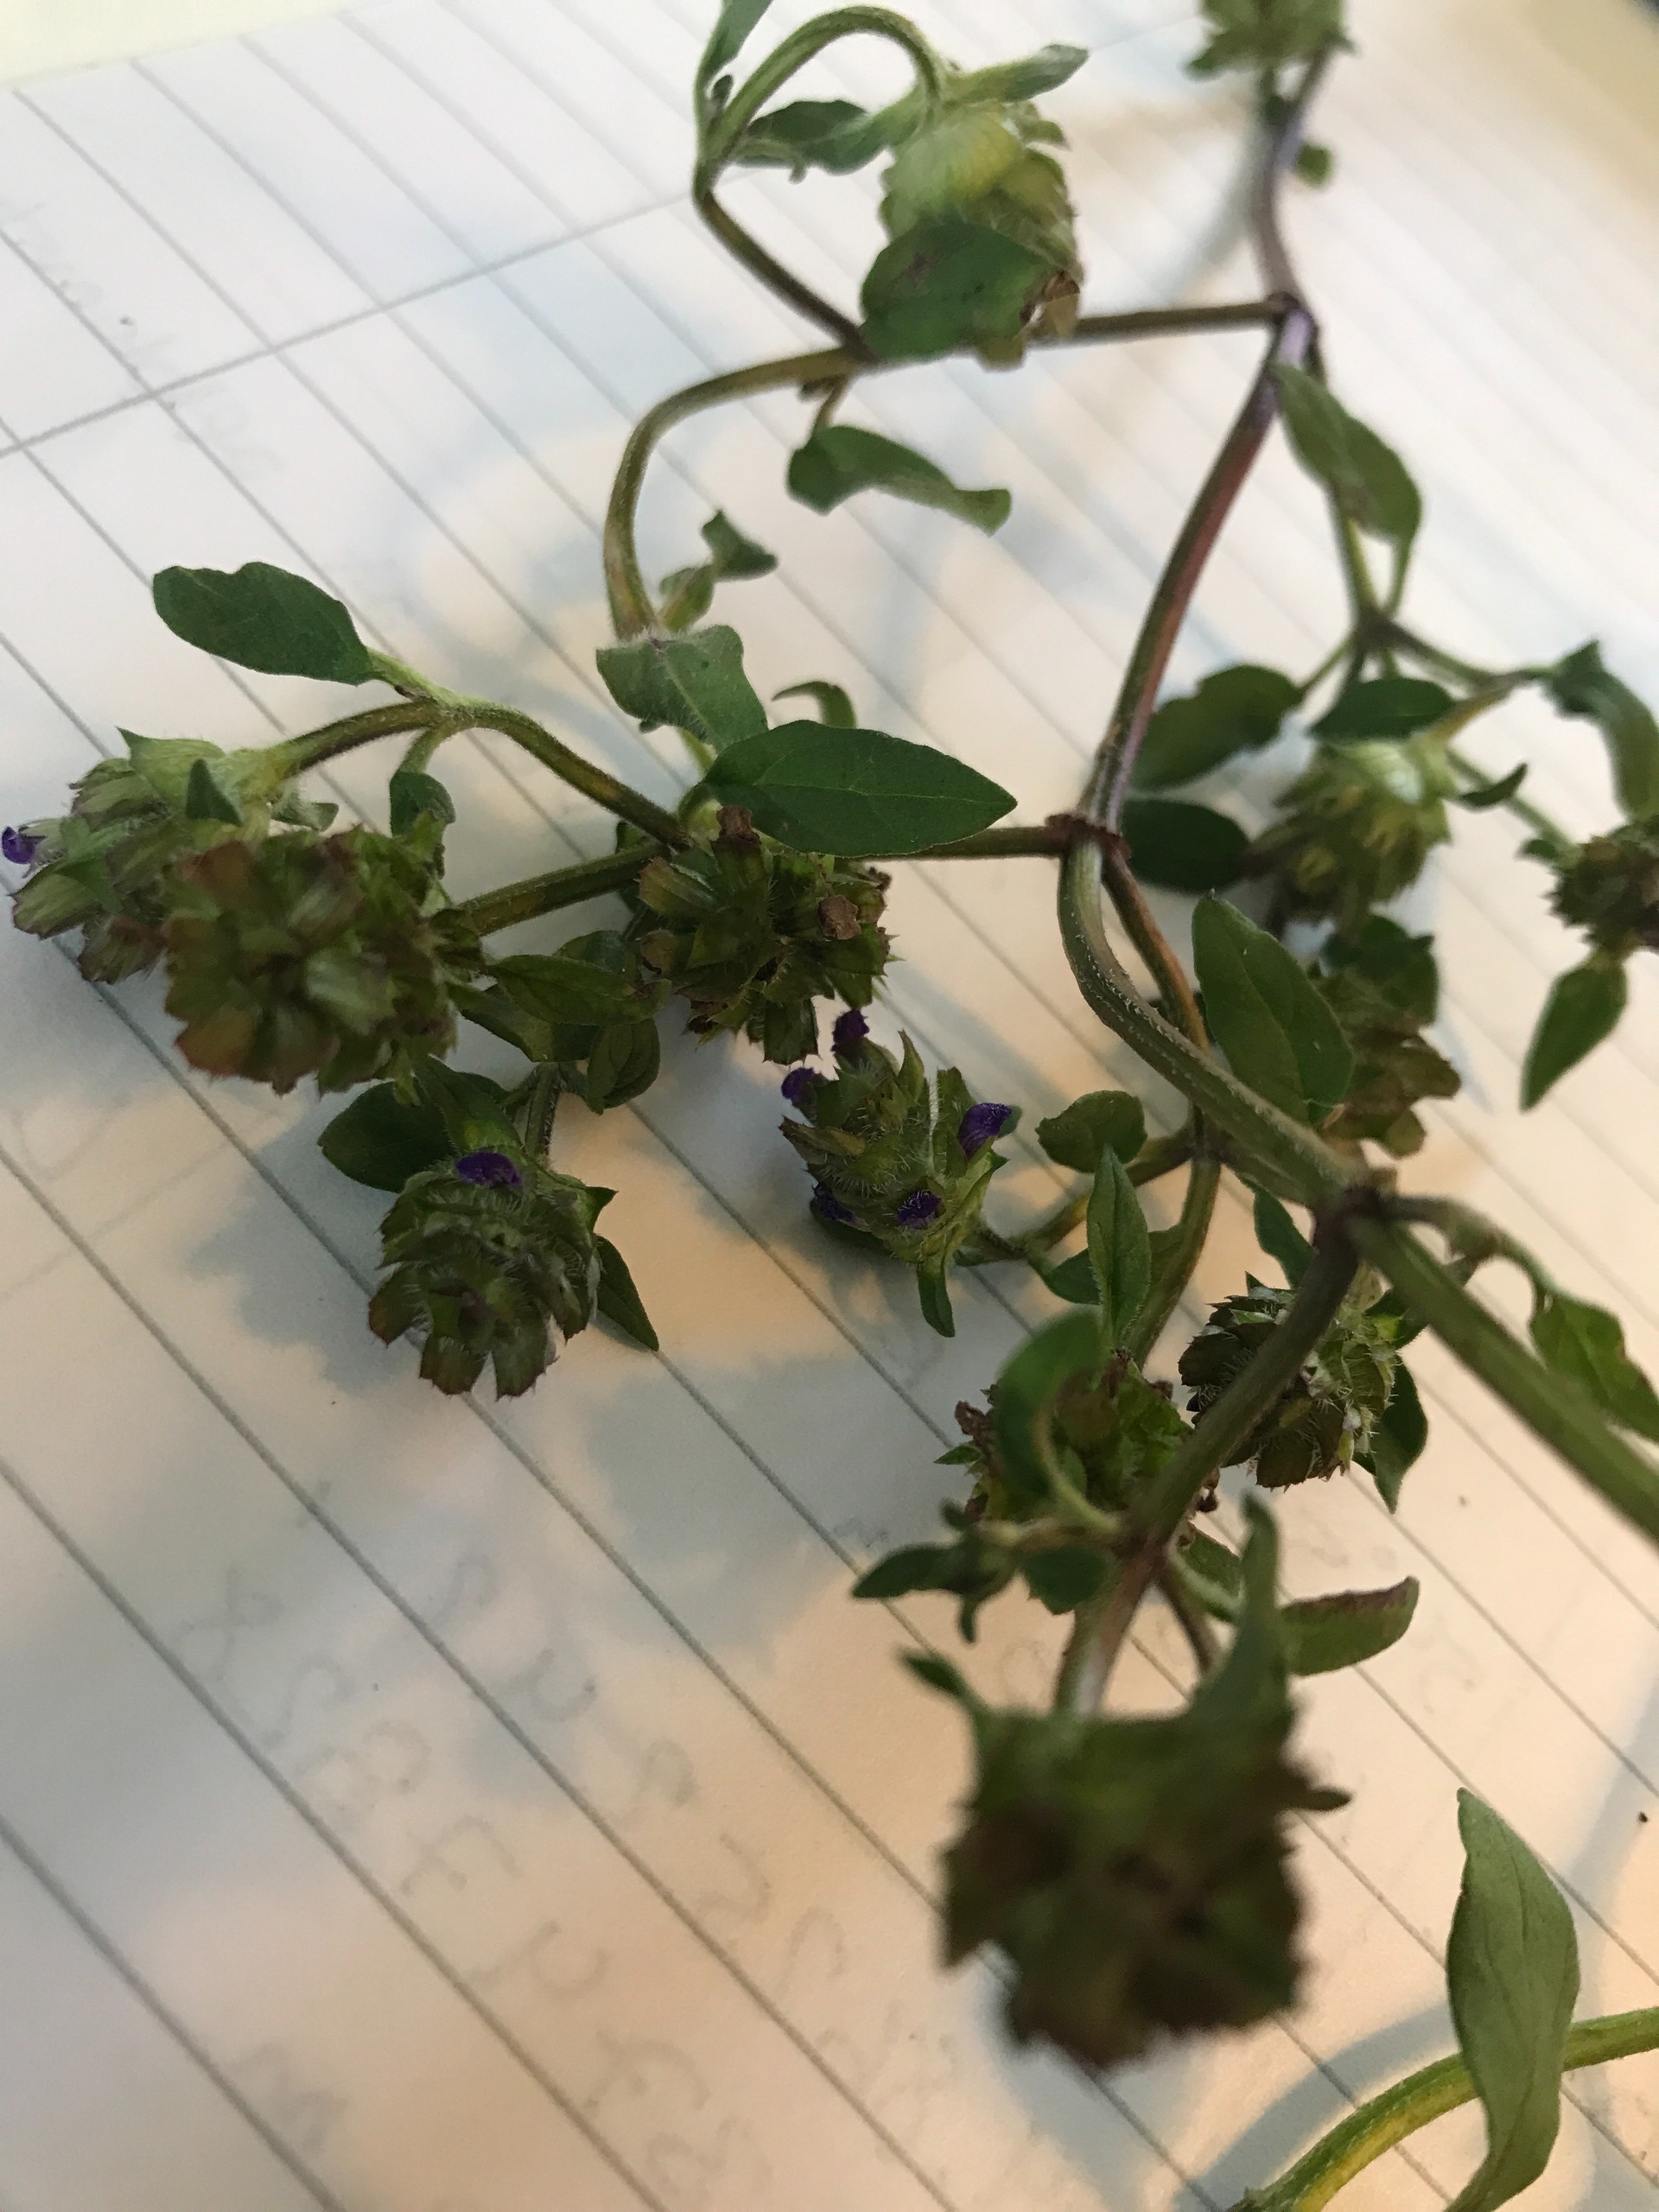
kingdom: Plantae
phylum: Tracheophyta
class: Magnoliopsida
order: Lamiales
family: Lamiaceae
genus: Prunella
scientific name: Prunella vulgaris
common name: Almindelig brunelle
